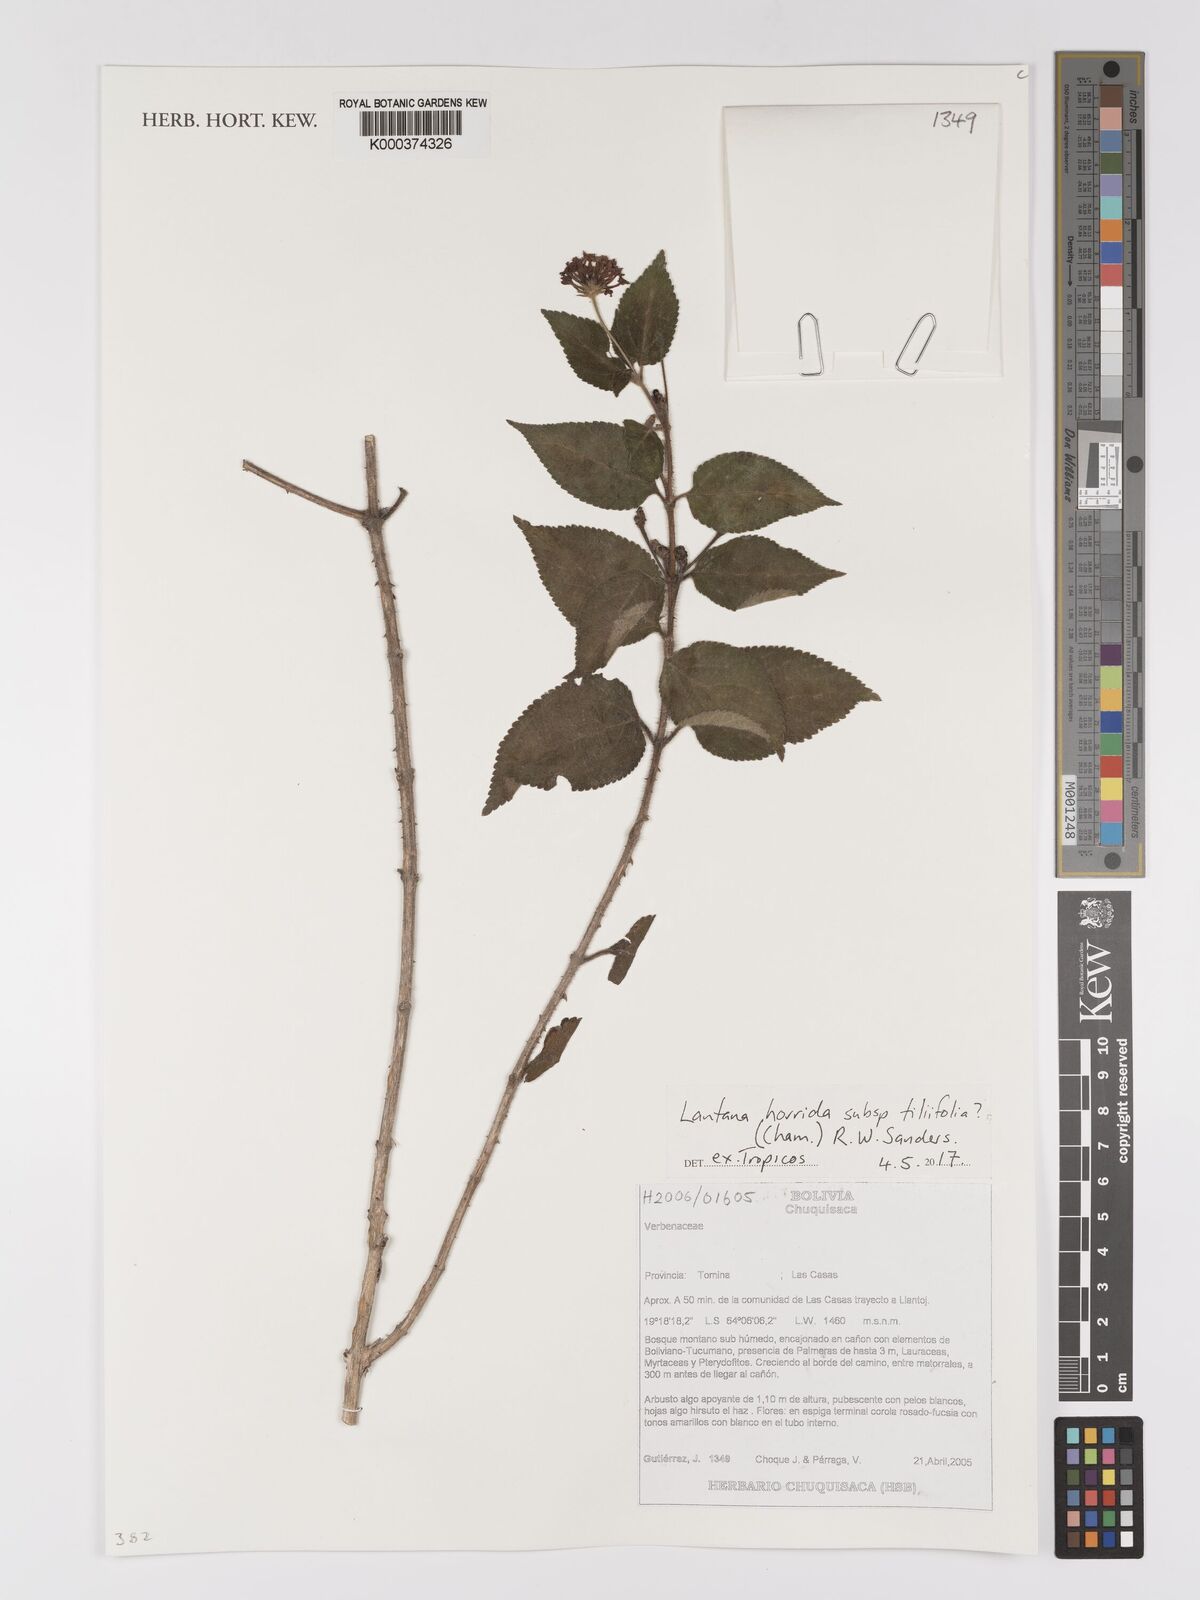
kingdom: Plantae
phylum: Tracheophyta
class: Magnoliopsida
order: Lamiales
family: Verbenaceae
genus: Lantana
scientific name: Lantana horrida
